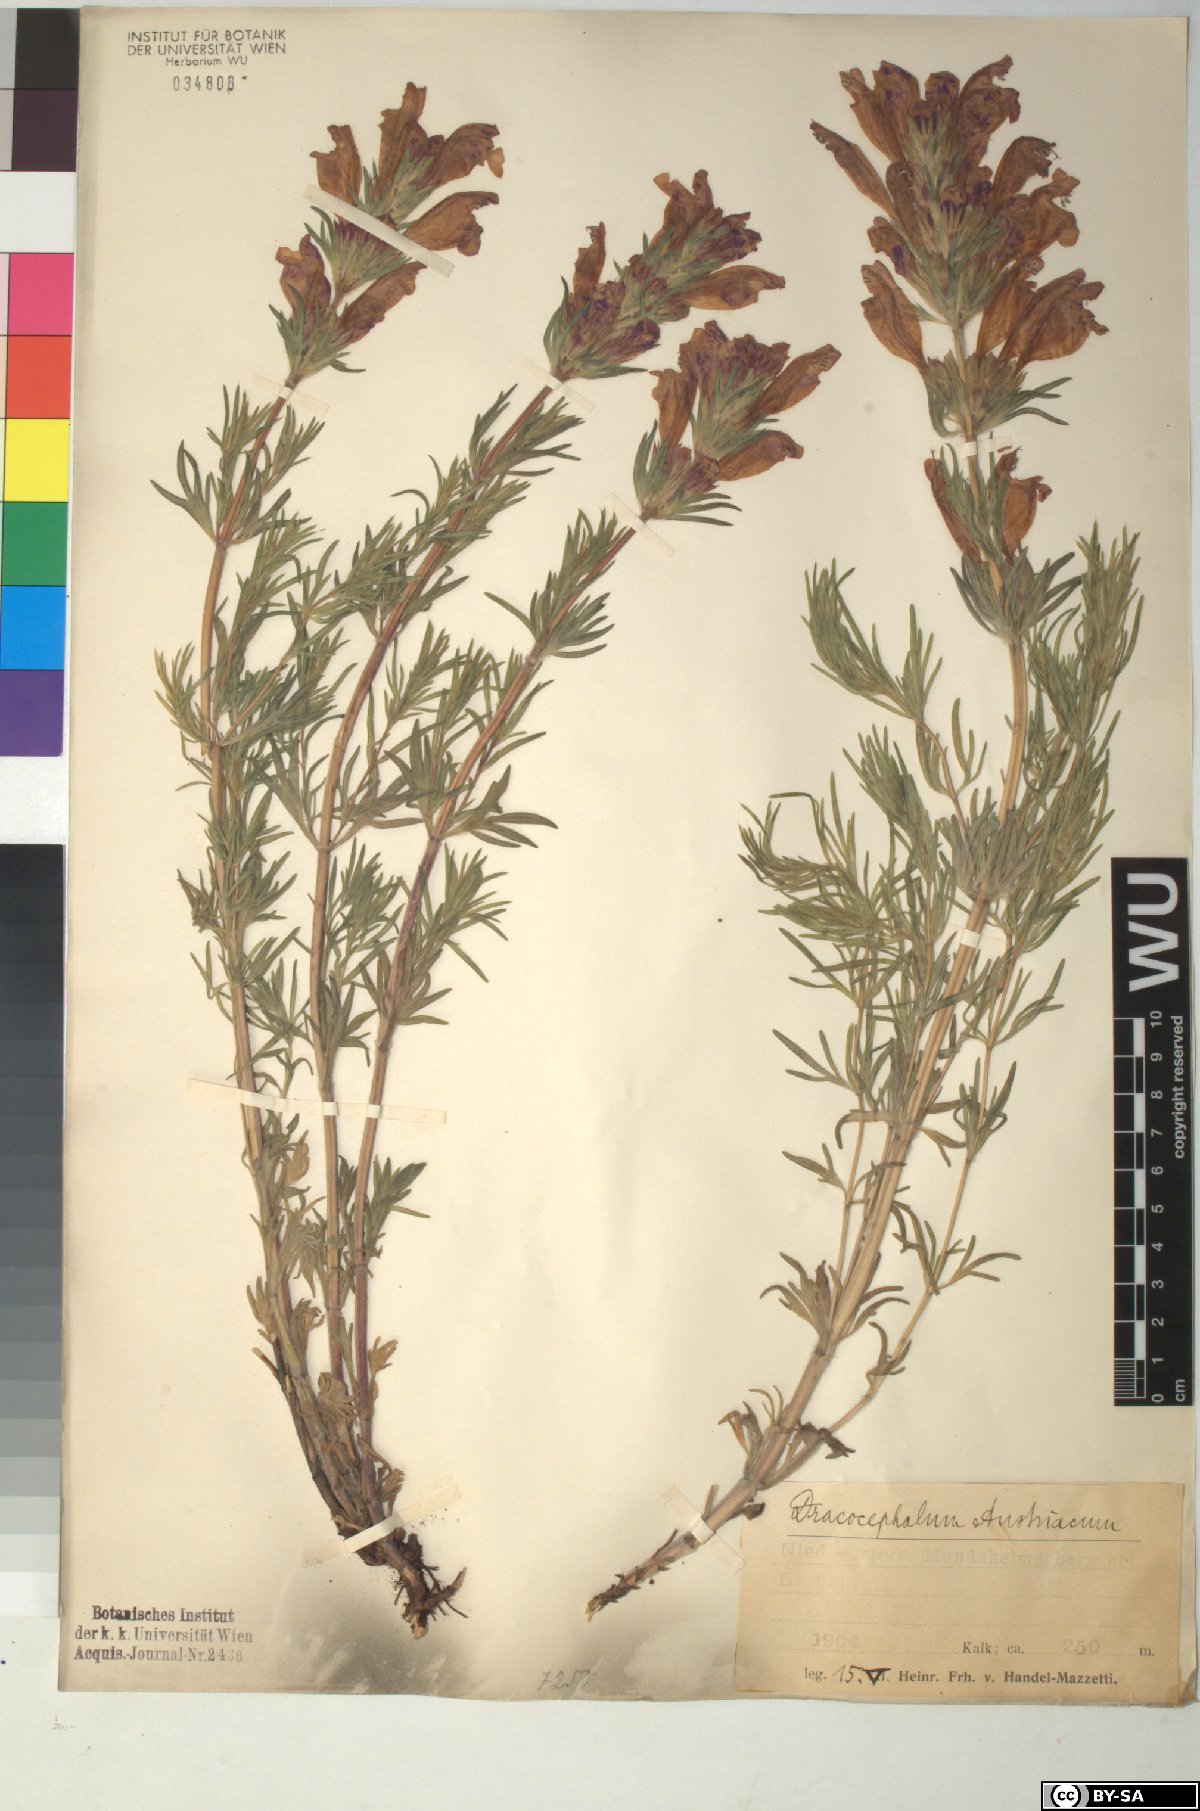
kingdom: Plantae
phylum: Tracheophyta
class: Magnoliopsida
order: Lamiales
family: Lamiaceae
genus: Dracocephalum
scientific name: Dracocephalum austriacum
